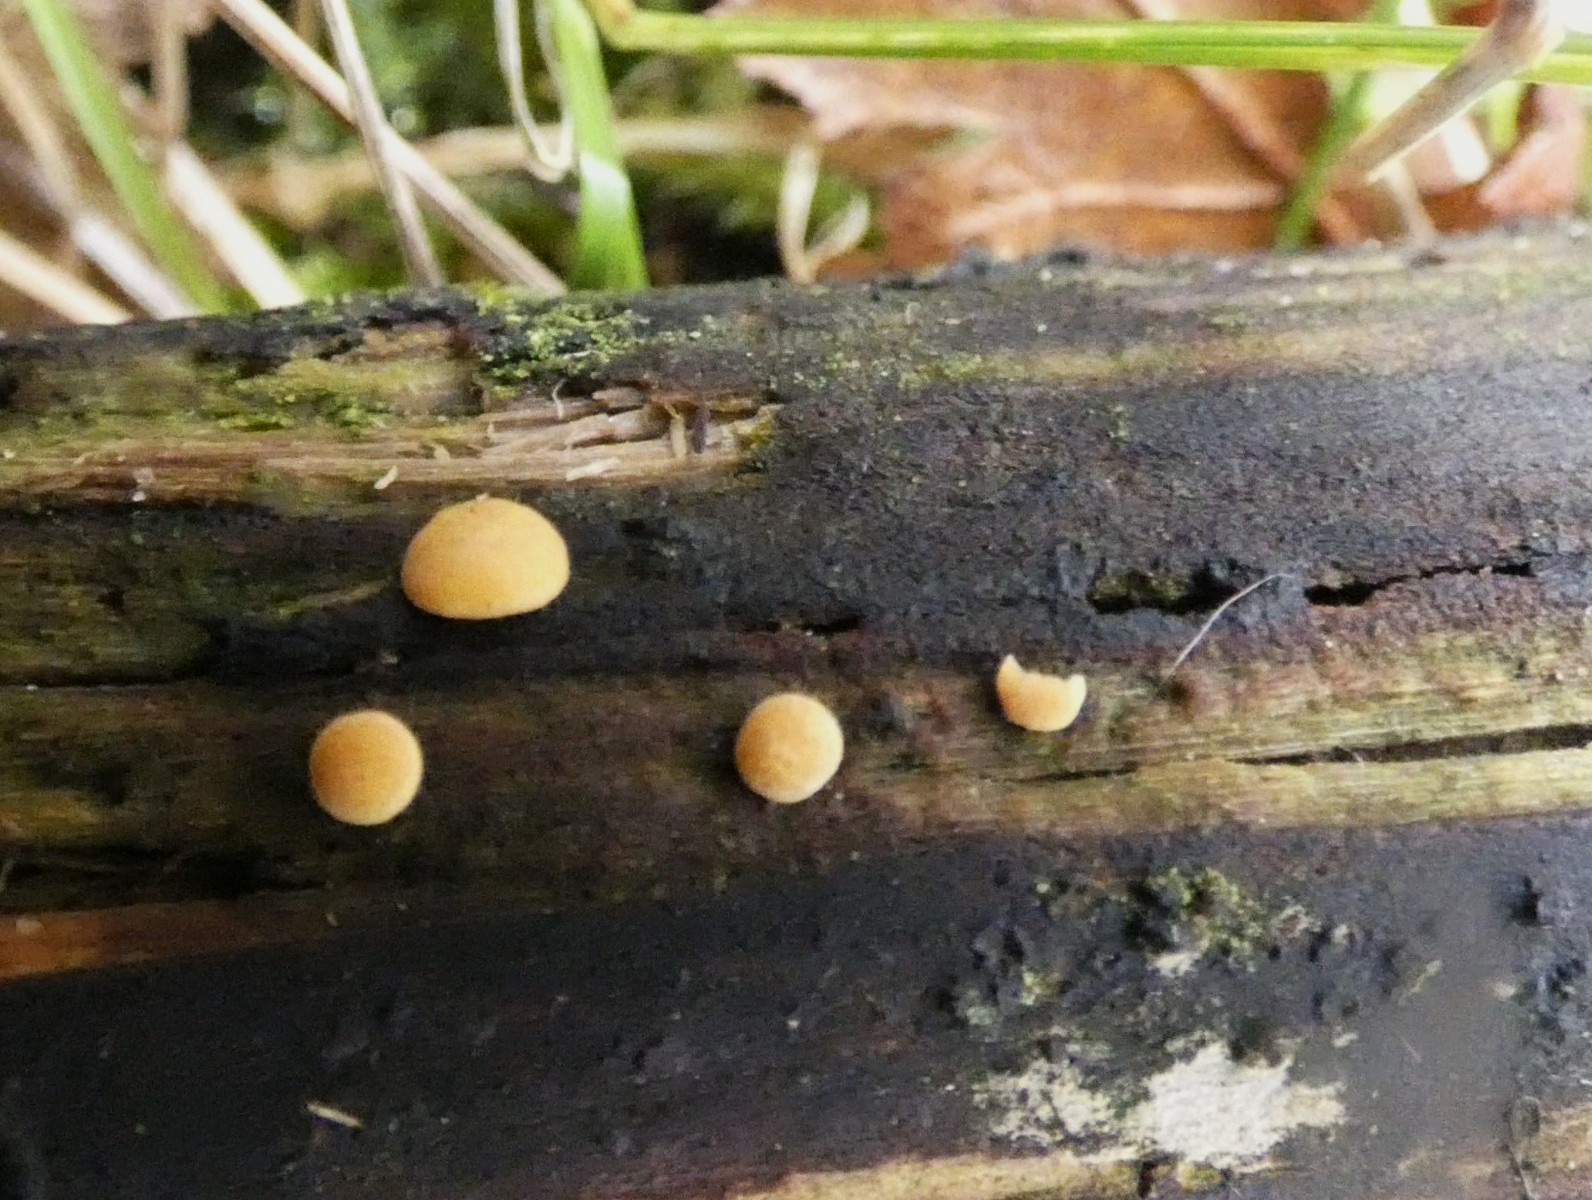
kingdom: Fungi
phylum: Ascomycota
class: Sordariomycetes
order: Hypocreales
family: Hypocreaceae
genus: Trichoderma
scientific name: Trichoderma aureoviride
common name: æggegul kødkerne
